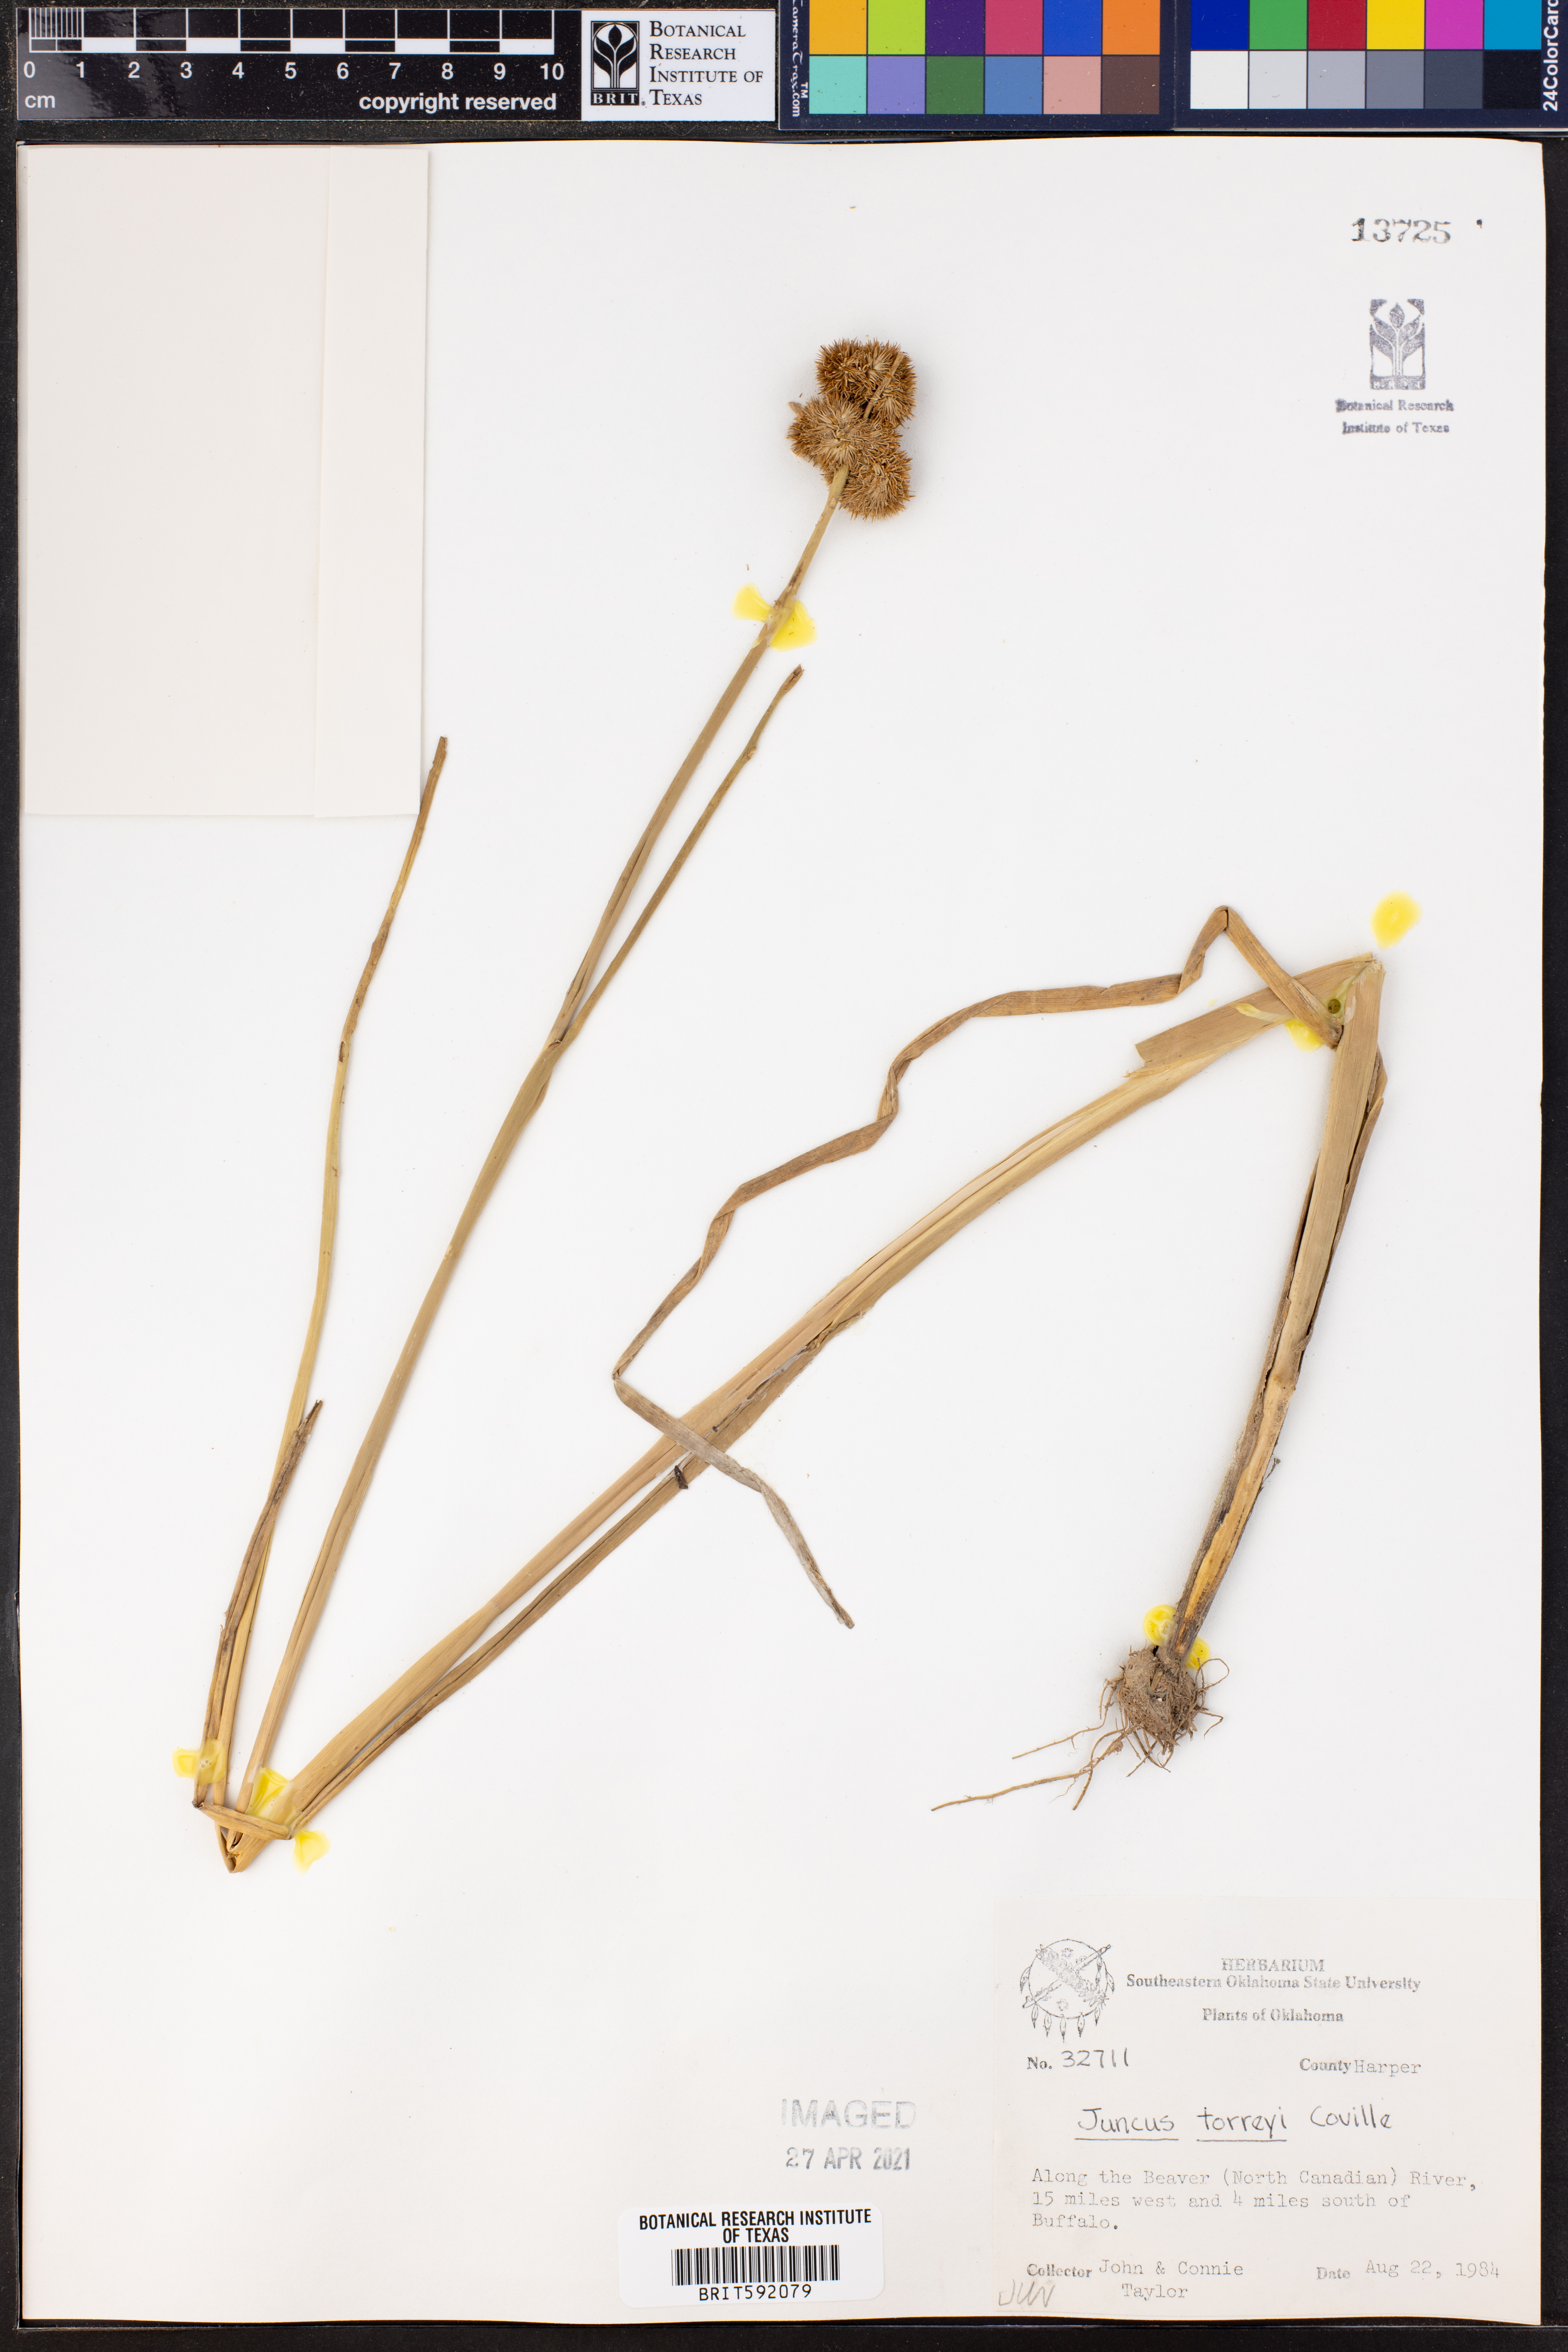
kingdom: Plantae
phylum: Tracheophyta
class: Liliopsida
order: Poales
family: Juncaceae
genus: Juncus
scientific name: Juncus torreyi
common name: Torrey's rush
